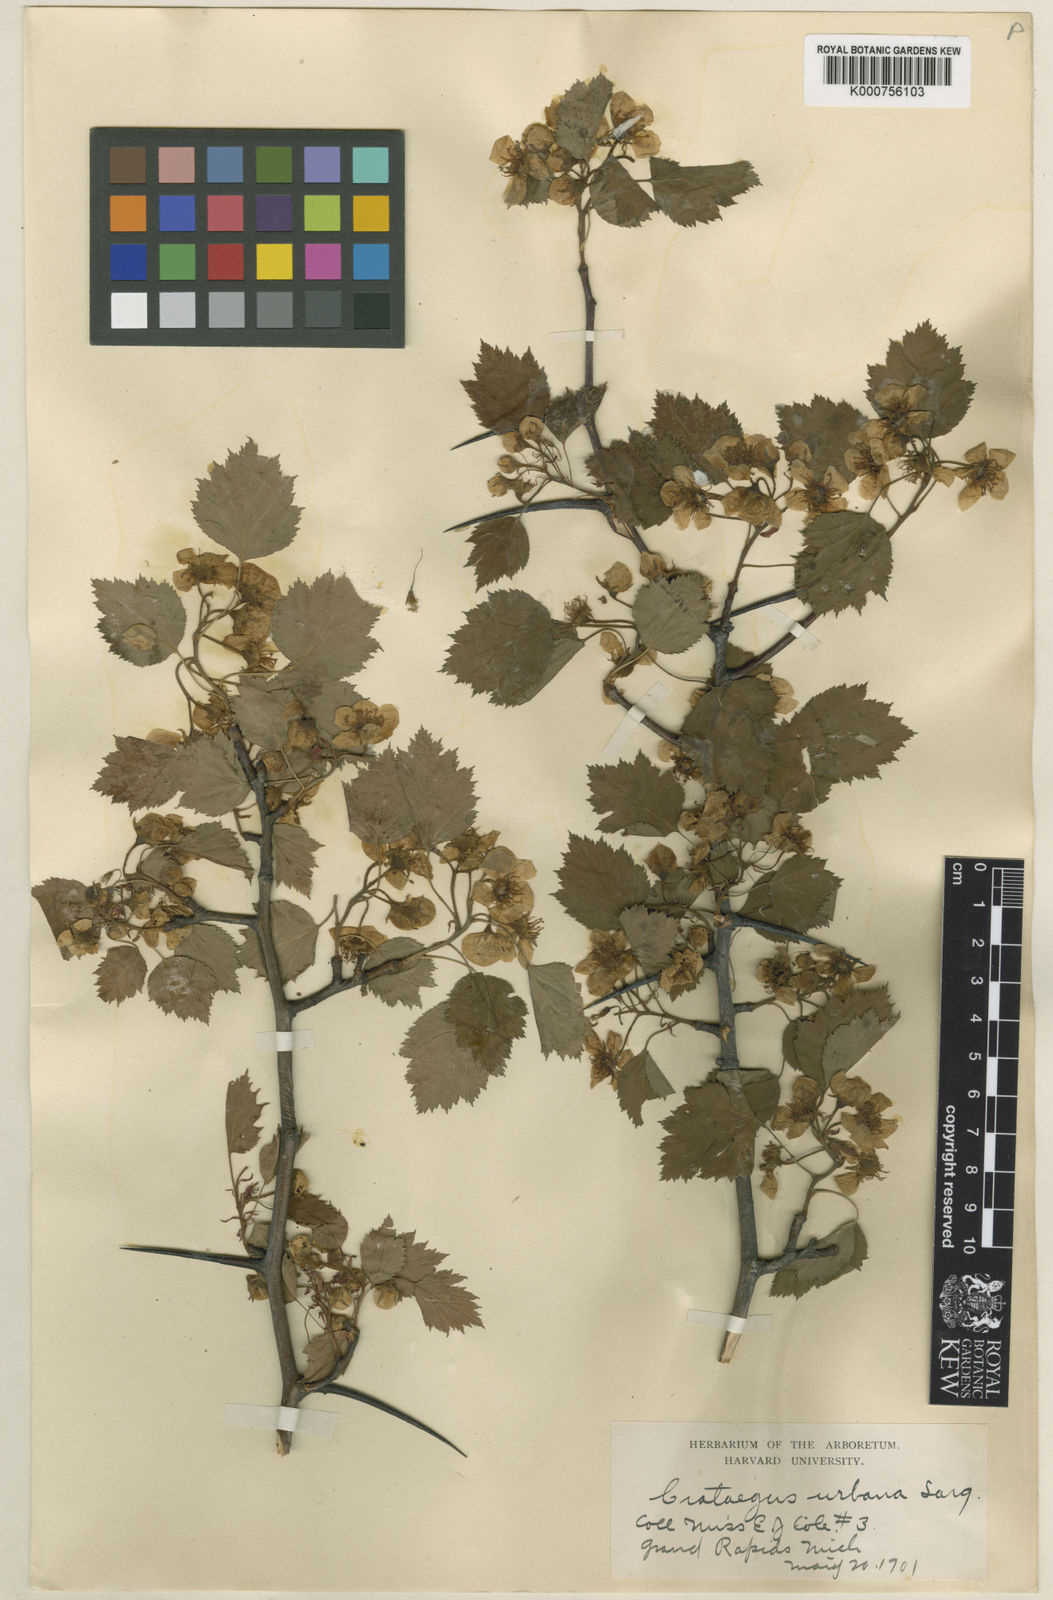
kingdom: Plantae
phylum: Tracheophyta
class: Magnoliopsida
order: Rosales
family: Rosaceae
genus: Crataegus
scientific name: Crataegus urbana
